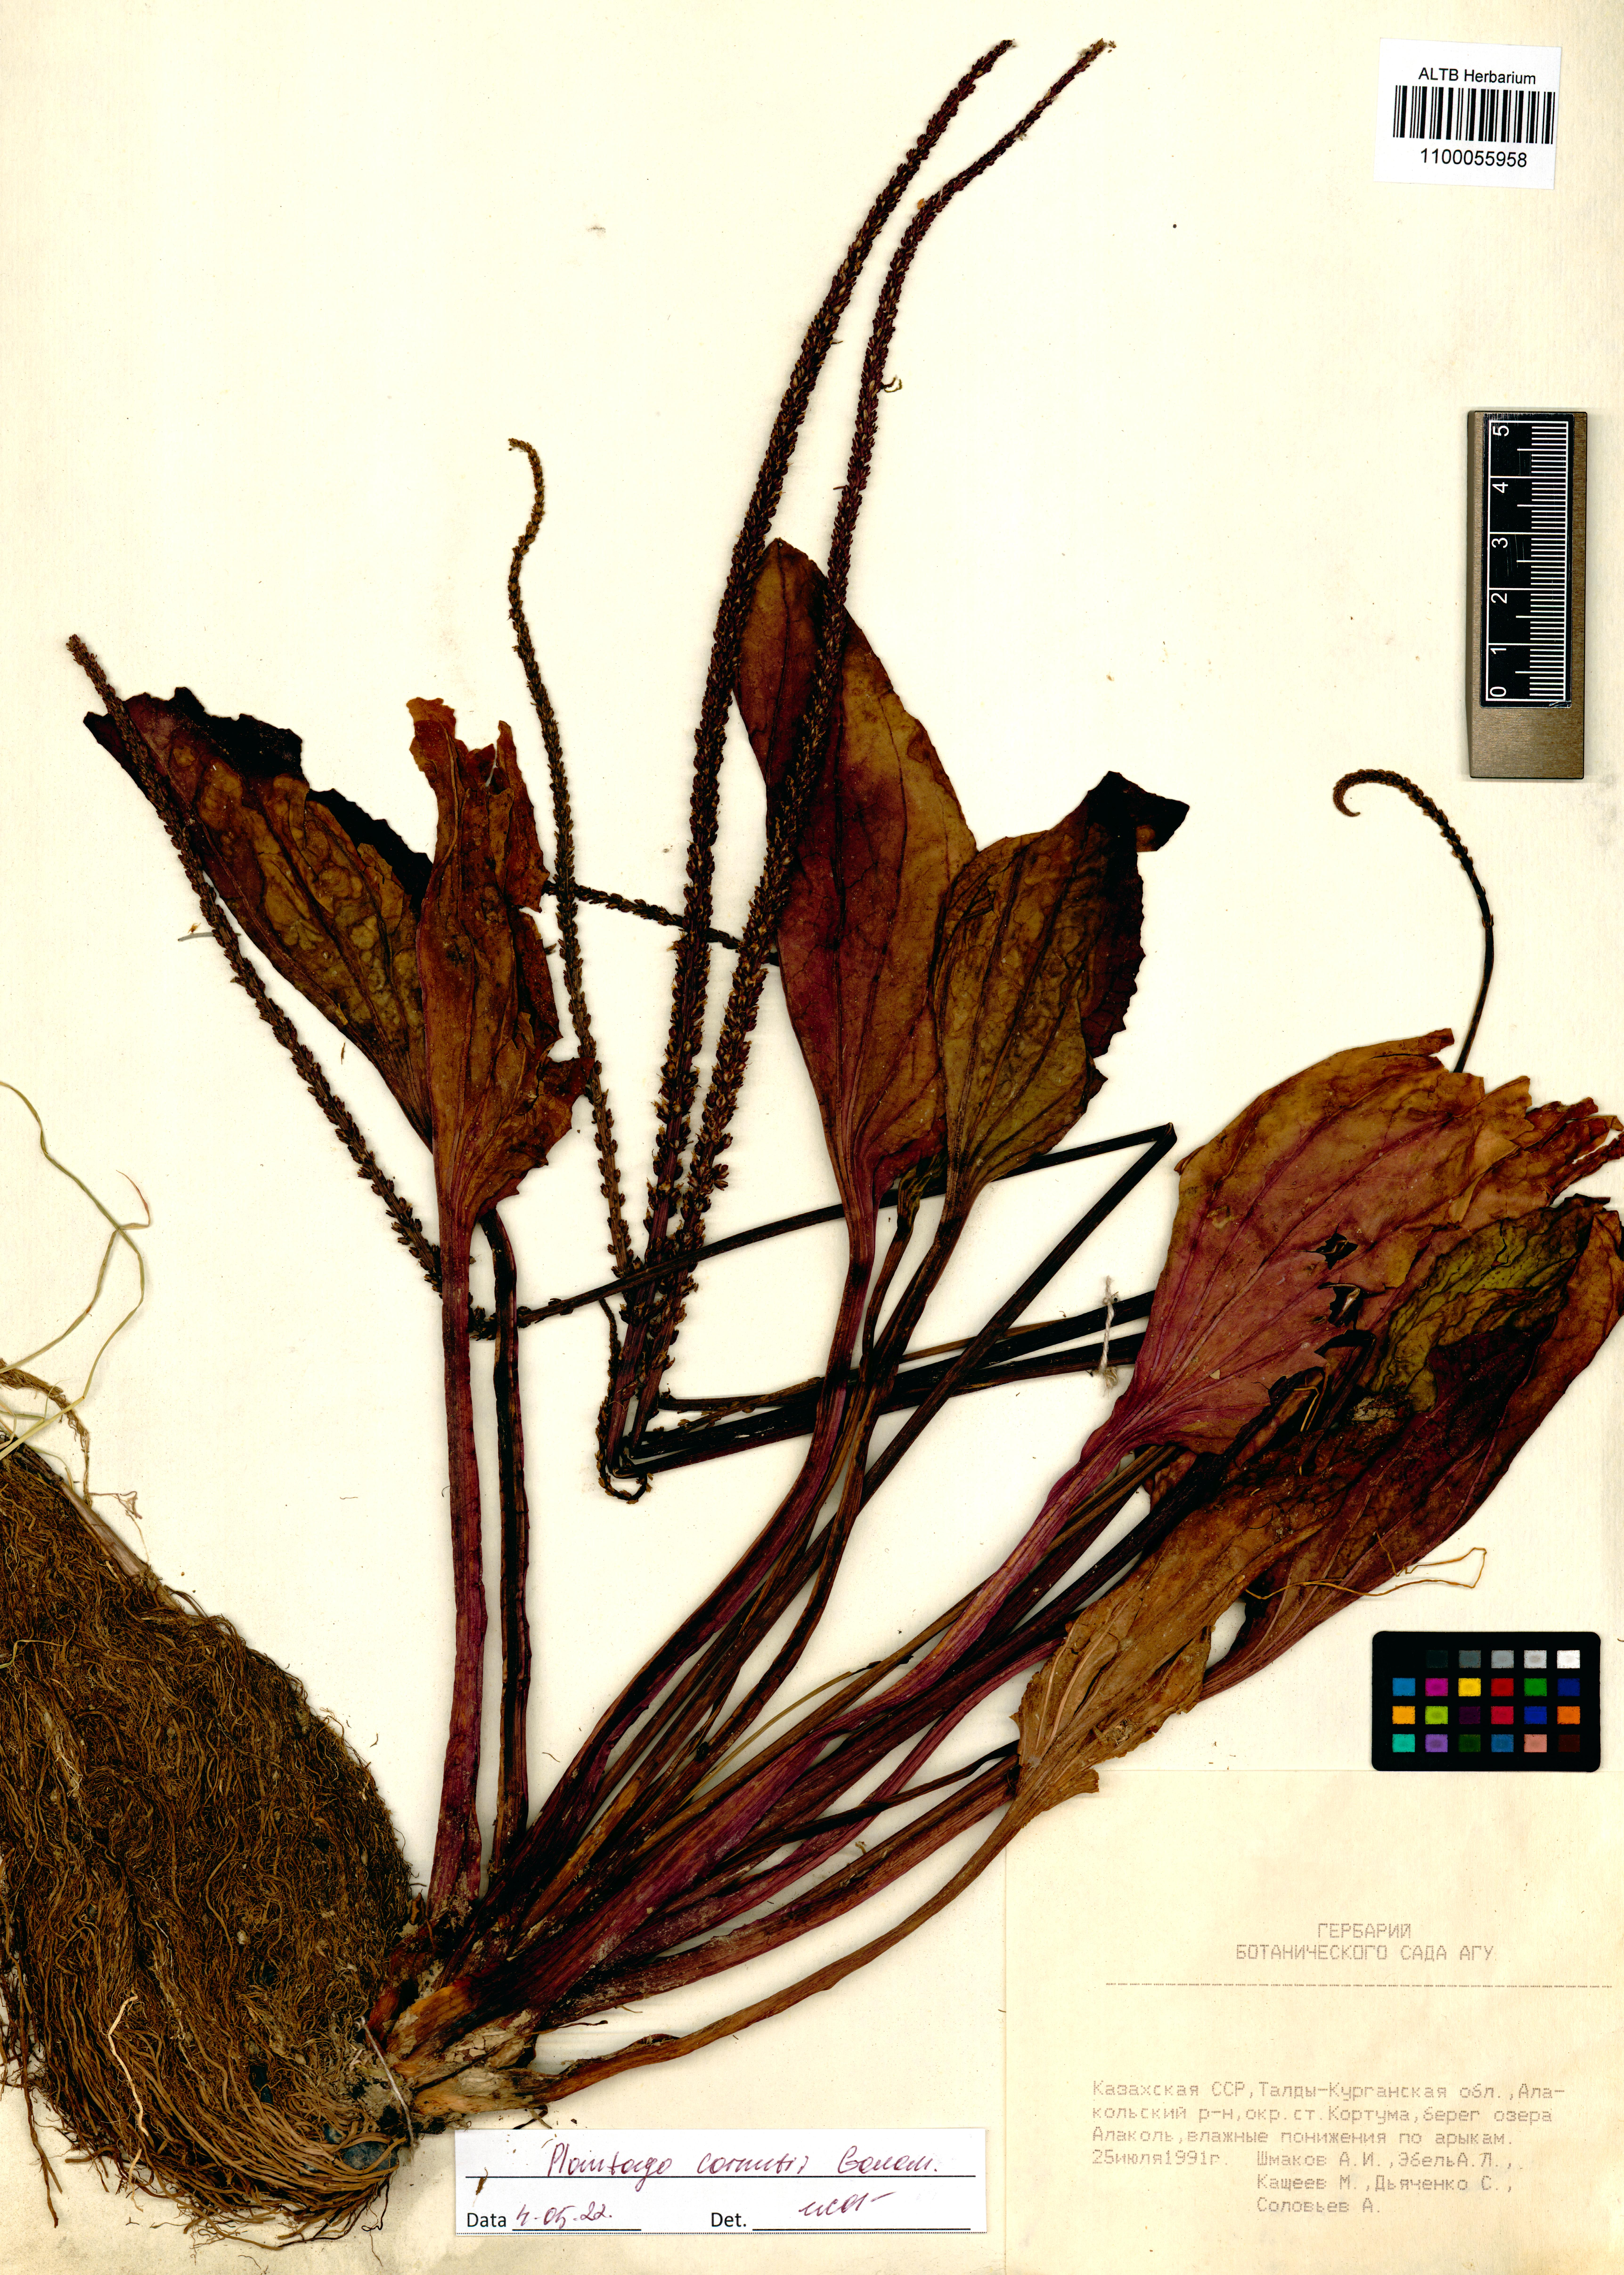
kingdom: Plantae
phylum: Tracheophyta
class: Magnoliopsida
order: Lamiales
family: Plantaginaceae
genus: Plantago
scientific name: Plantago cornuti
